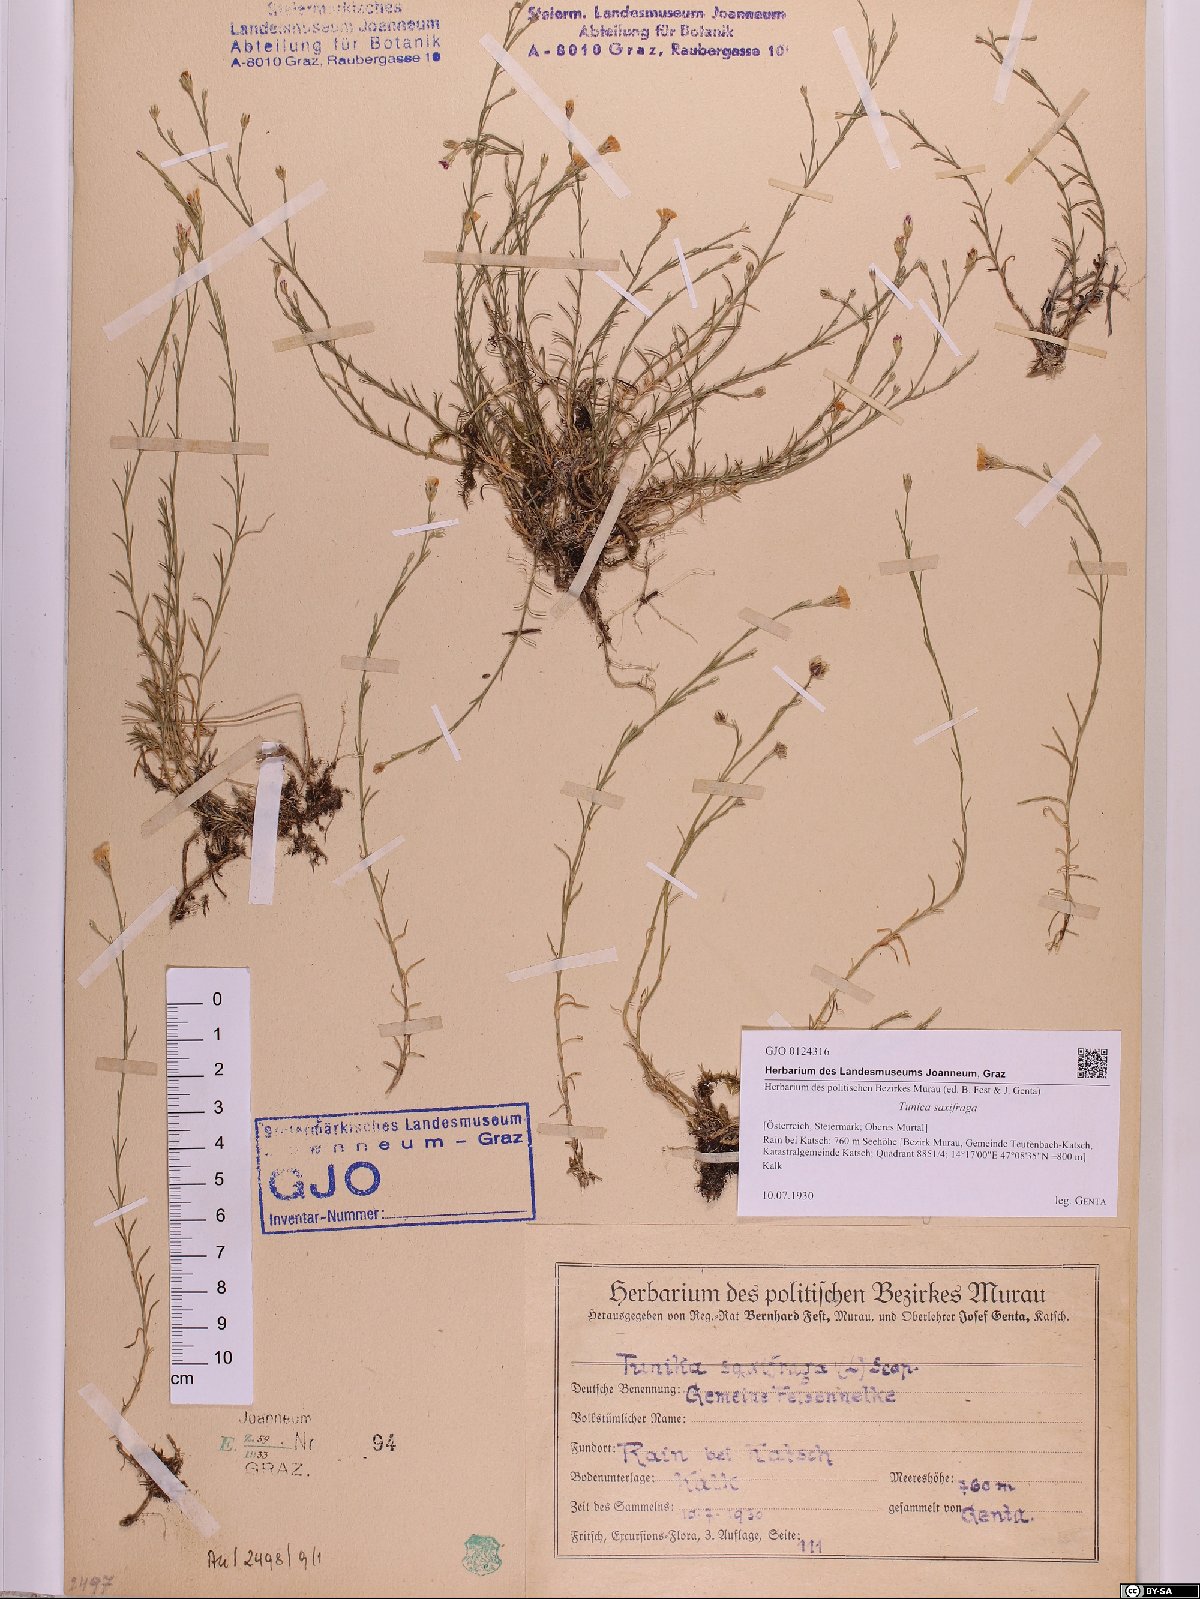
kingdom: Plantae
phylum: Tracheophyta
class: Magnoliopsida
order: Caryophyllales
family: Caryophyllaceae
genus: Petrorhagia
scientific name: Petrorhagia saxifraga
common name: Tunicflower
